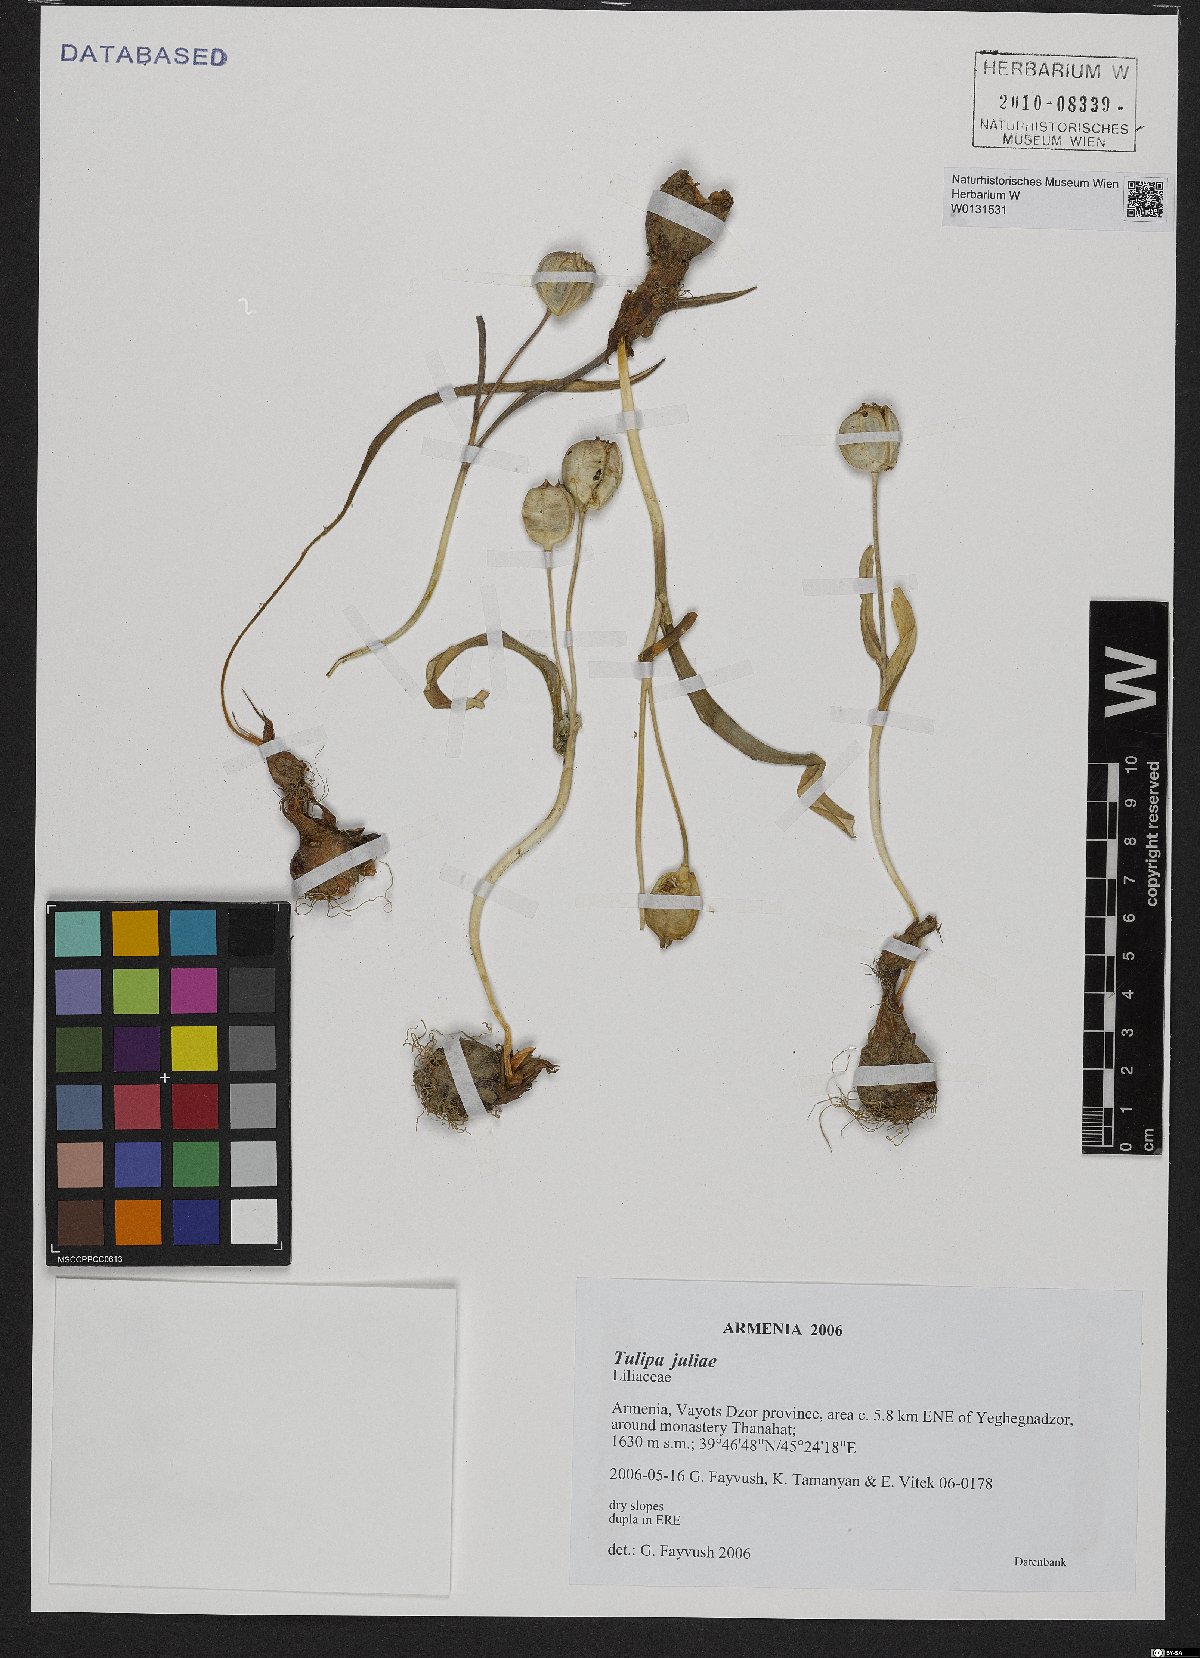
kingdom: Plantae
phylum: Tracheophyta
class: Liliopsida
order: Liliales
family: Liliaceae
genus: Tulipa
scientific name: Tulipa julia
